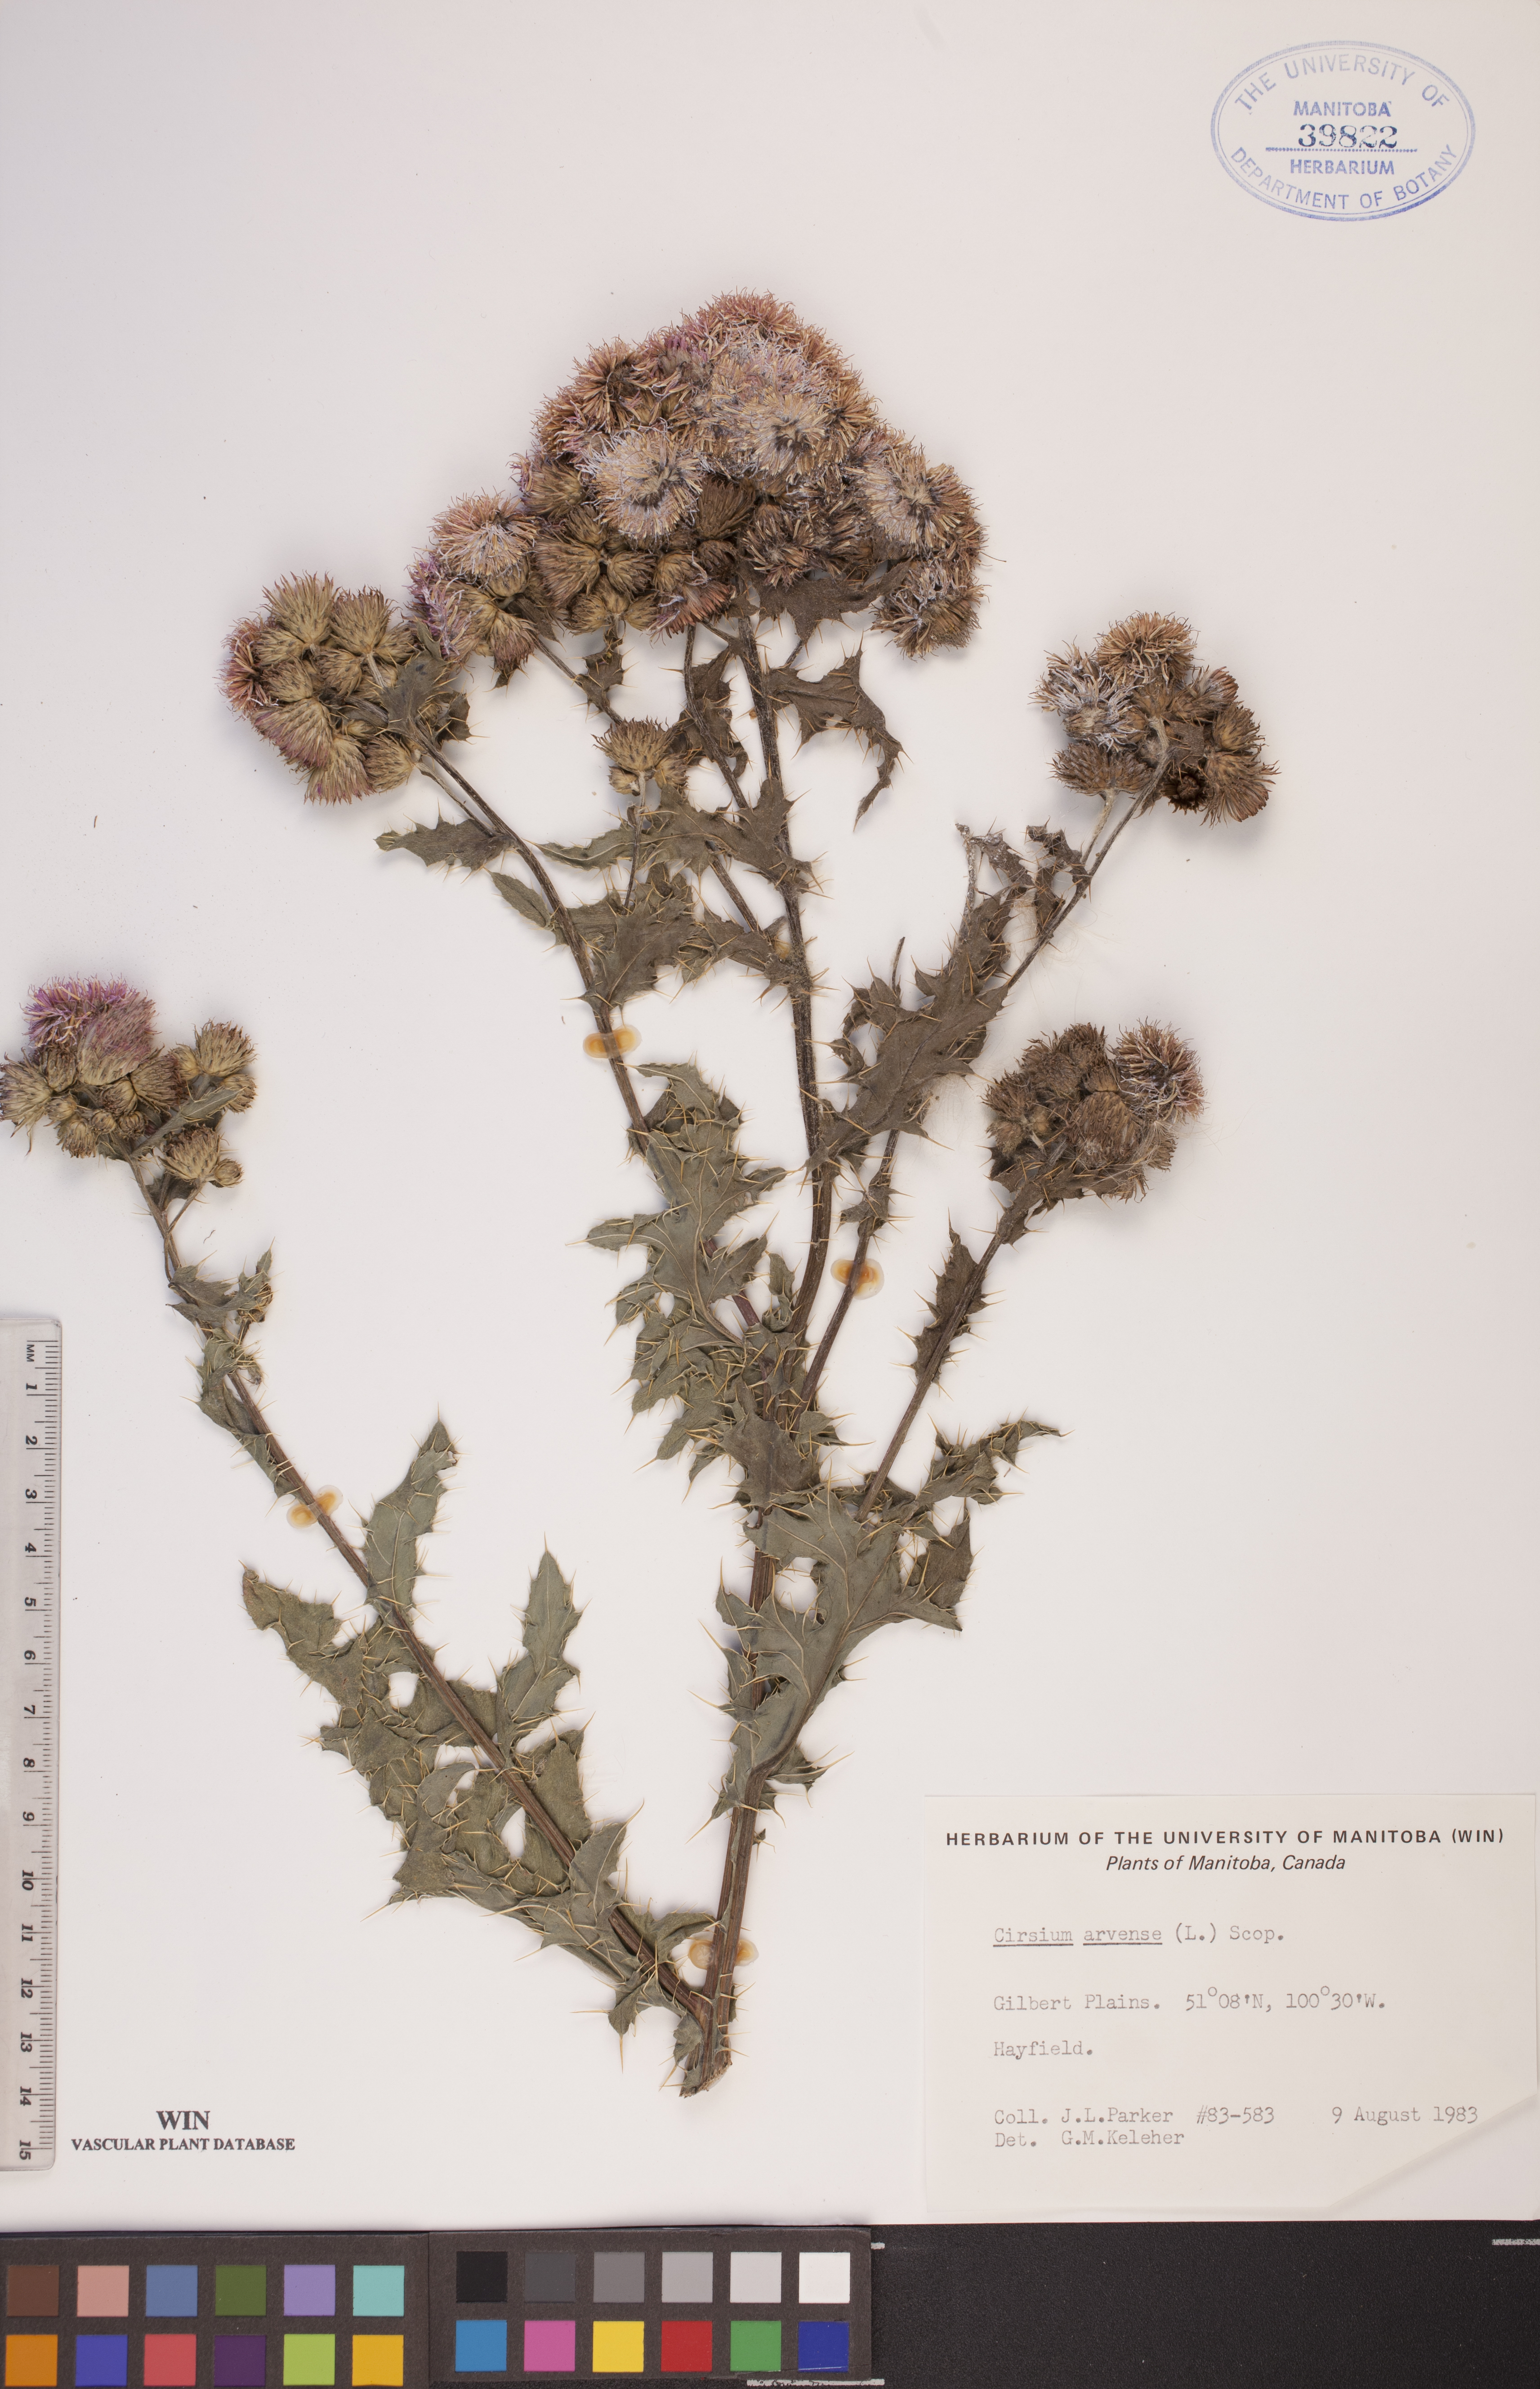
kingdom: Plantae
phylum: Tracheophyta
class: Magnoliopsida
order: Asterales
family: Asteraceae
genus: Cirsium
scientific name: Cirsium arvense
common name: Creeping thistle
